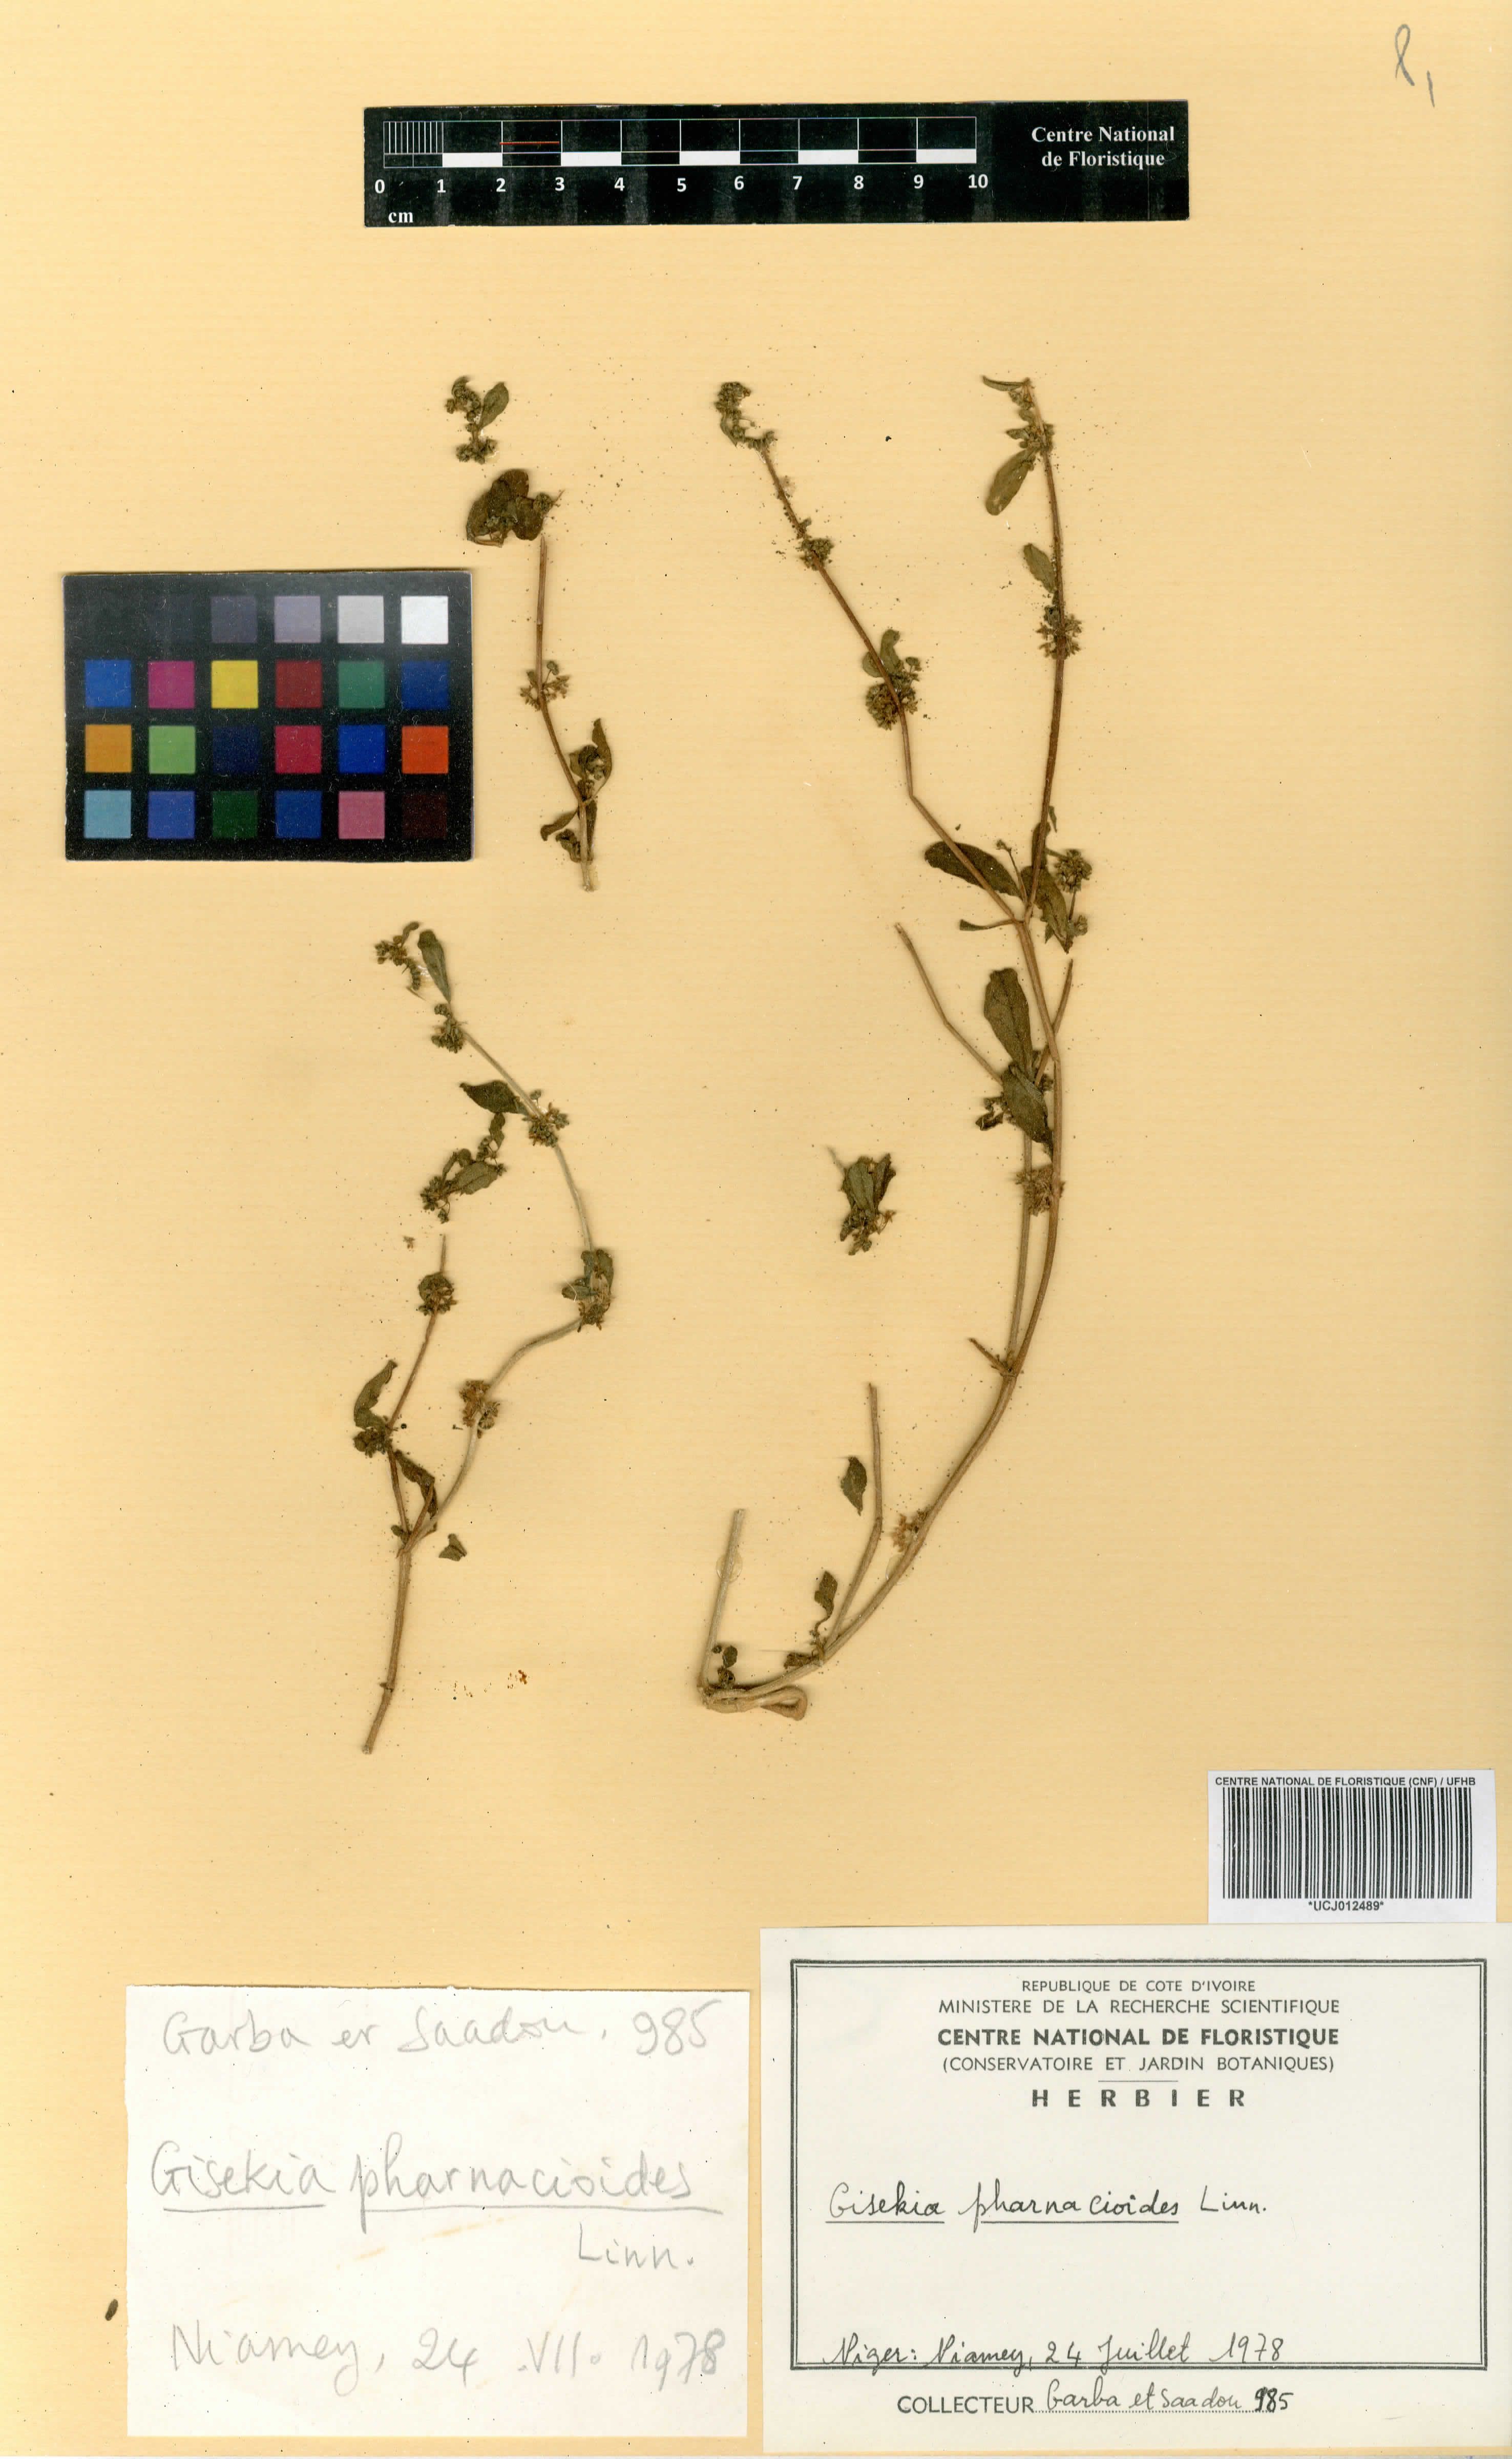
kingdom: Plantae
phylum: Tracheophyta
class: Magnoliopsida
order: Caryophyllales
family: Gisekiaceae
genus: Gisekia
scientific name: Gisekia pharnacioides
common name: Oldmaid
